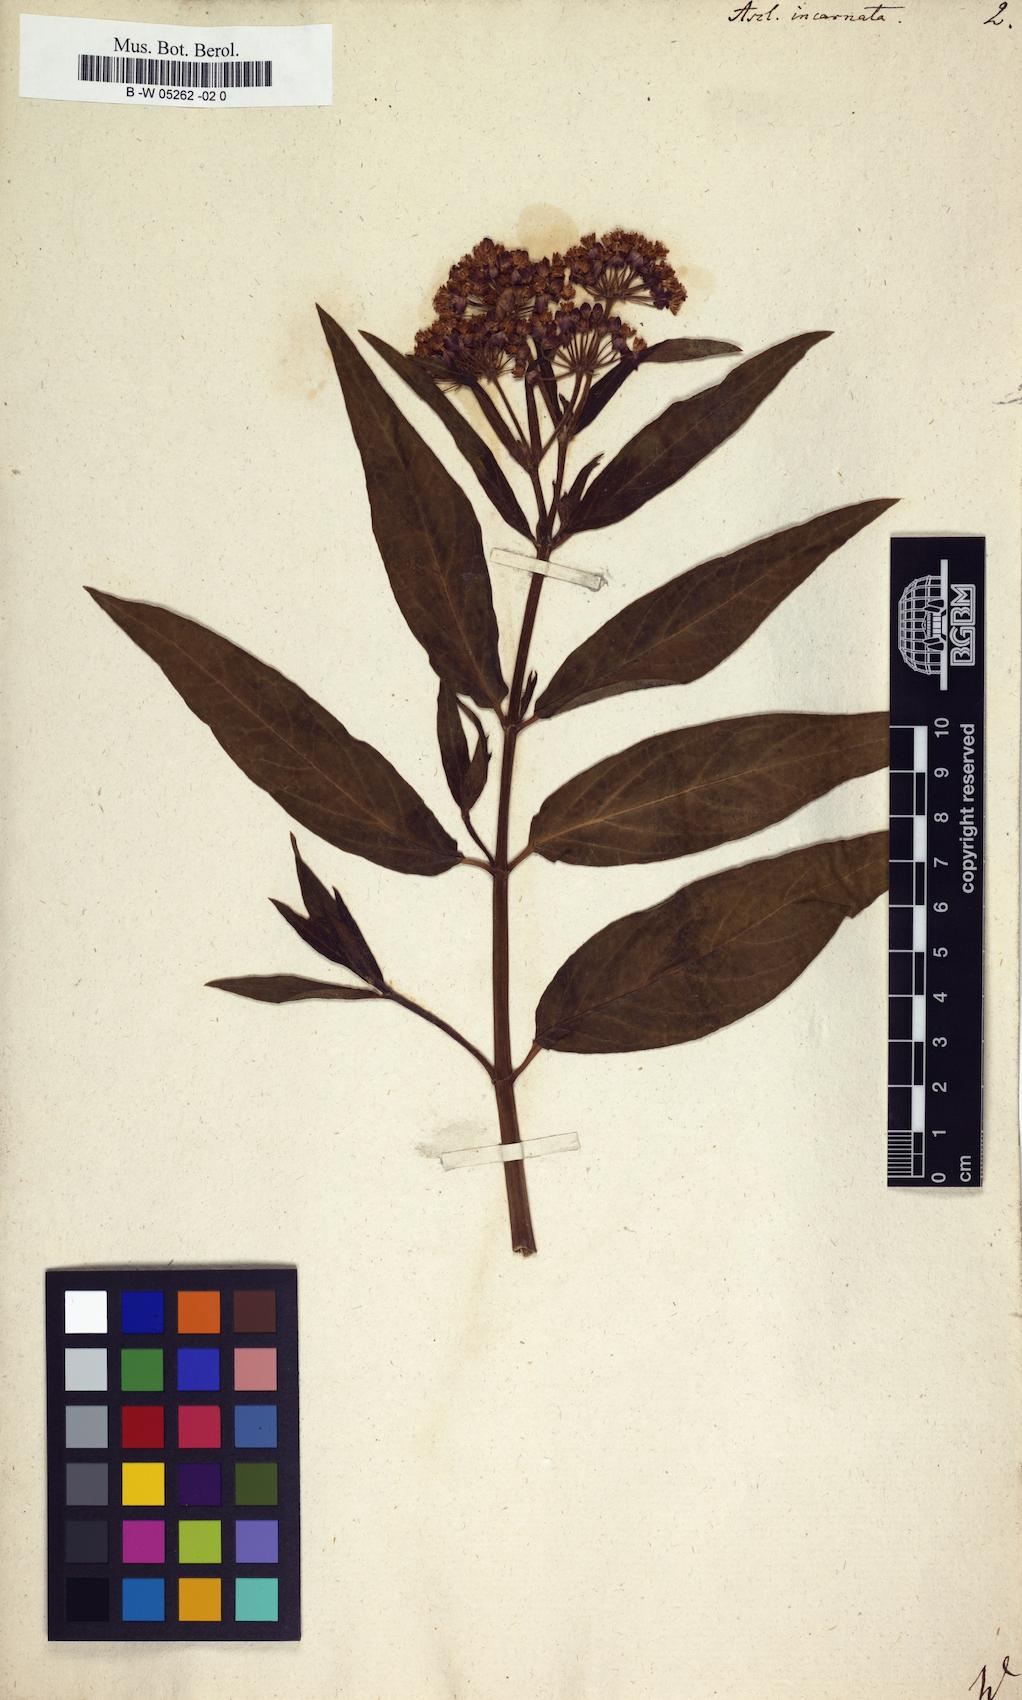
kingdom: Plantae
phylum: Tracheophyta
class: Magnoliopsida
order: Gentianales
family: Apocynaceae
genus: Asclepias
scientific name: Asclepias incarnata
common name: Swamp milkweed
